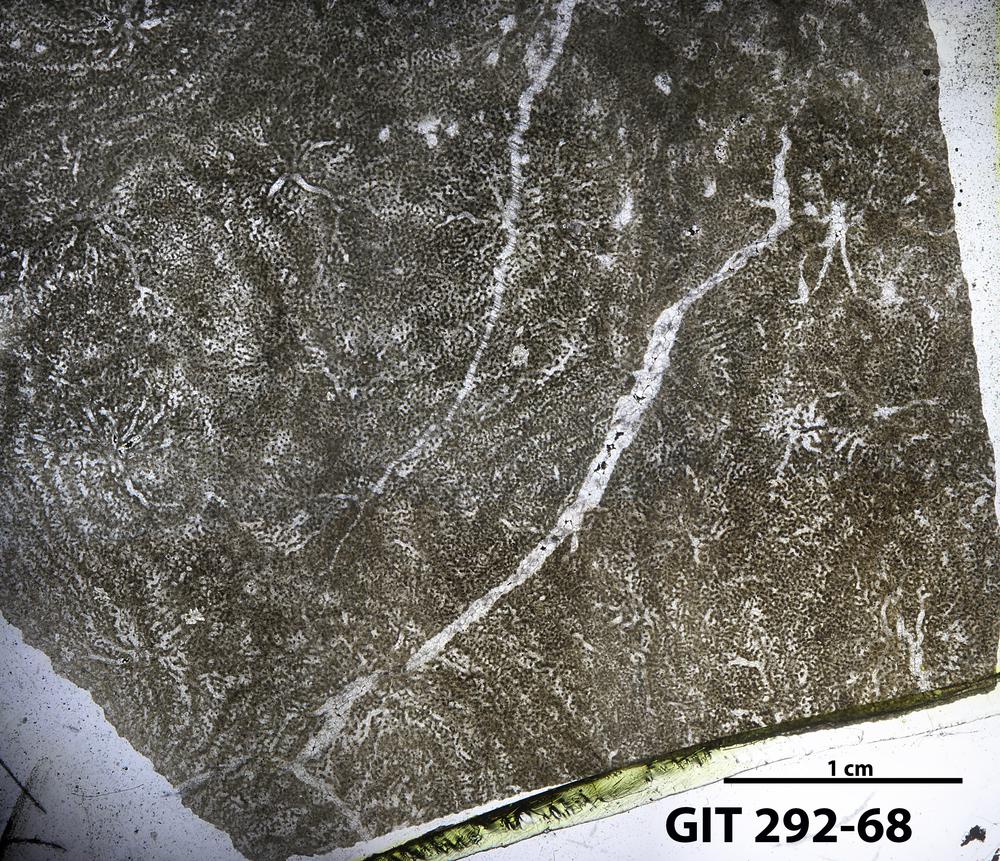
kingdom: Animalia
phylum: Porifera
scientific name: Porifera
